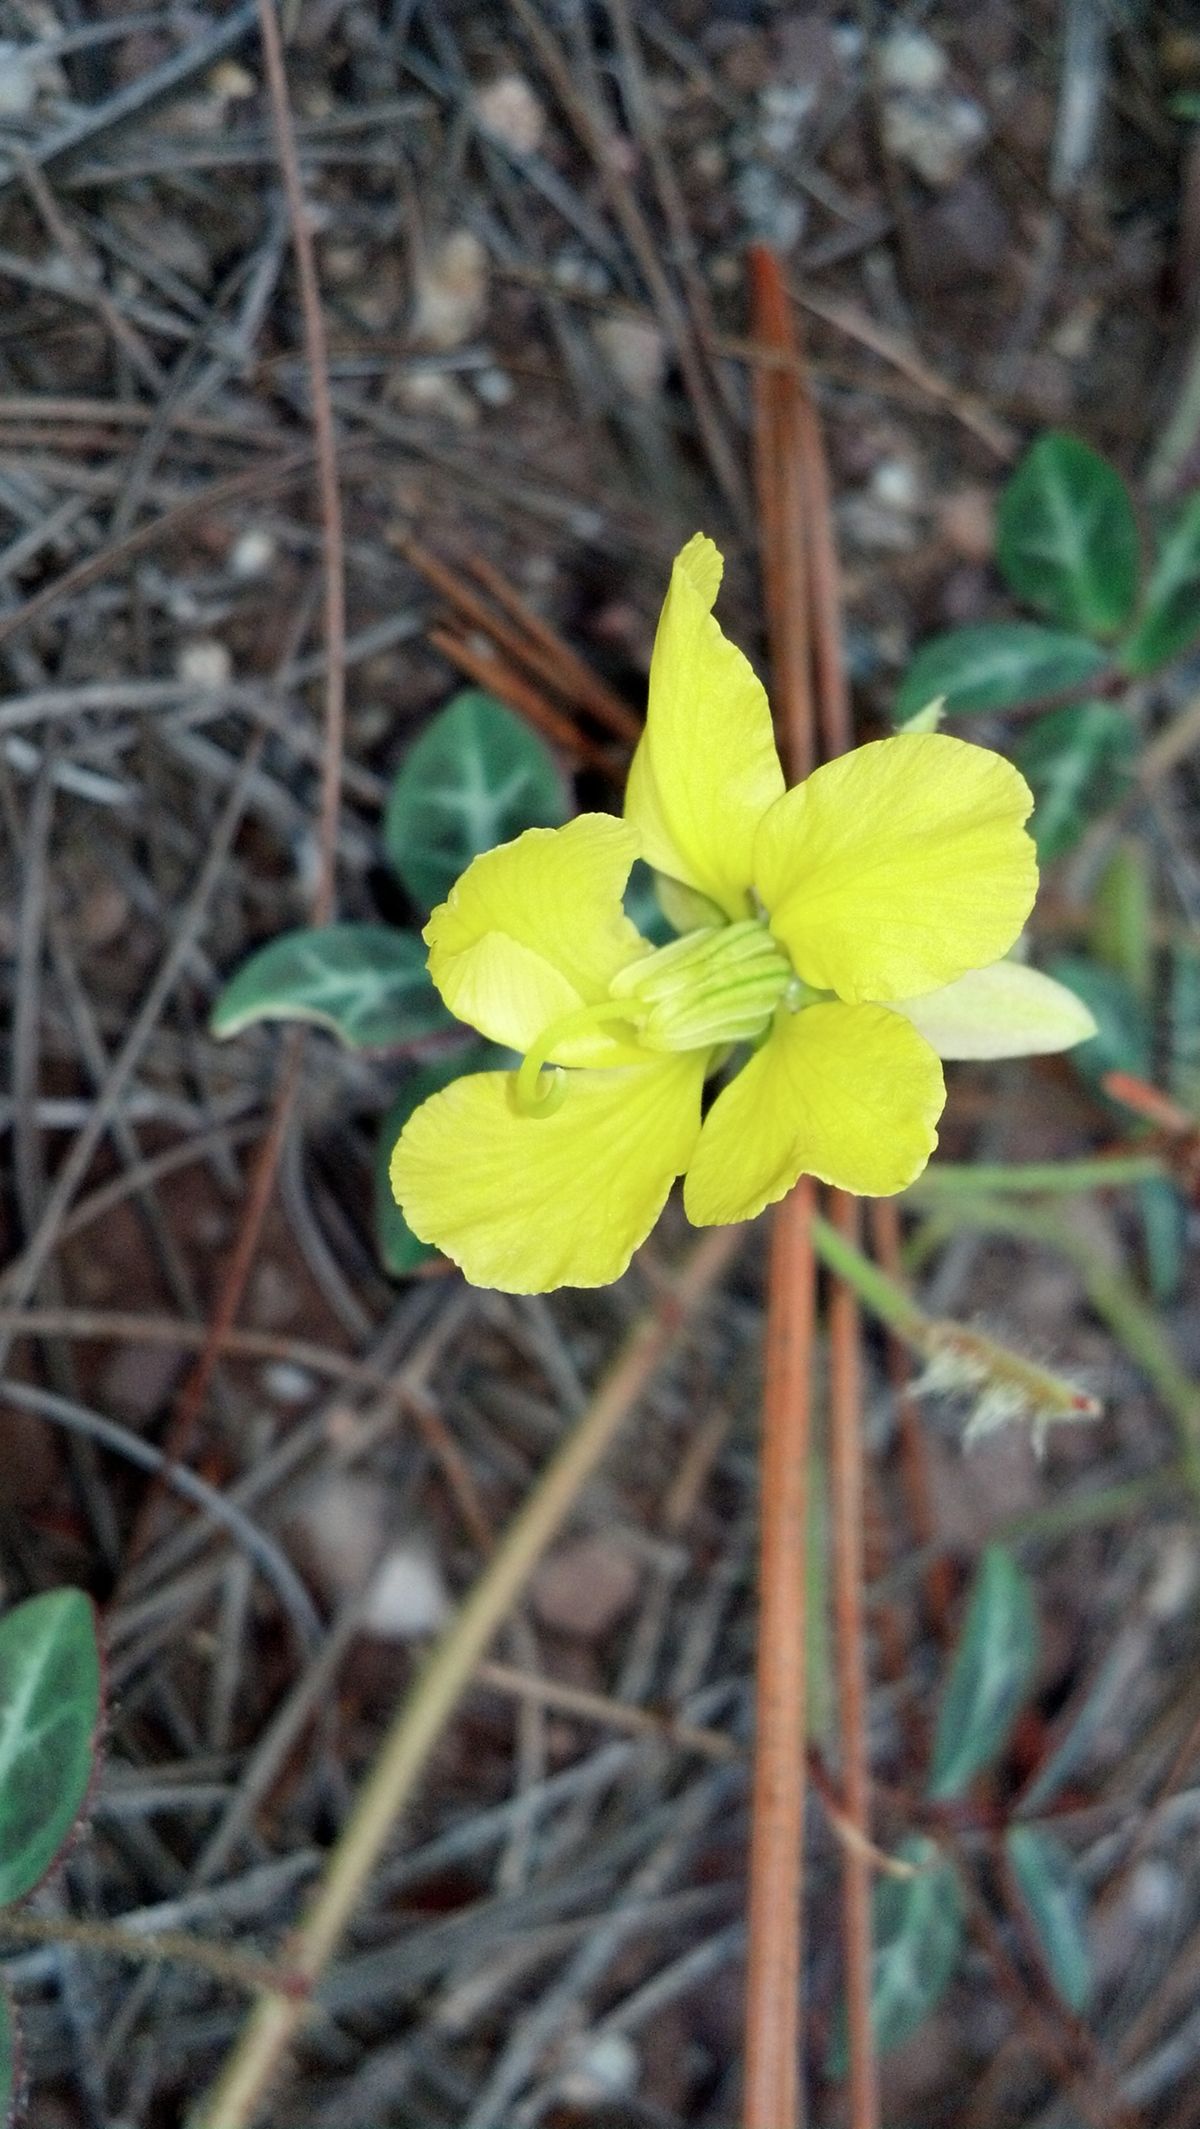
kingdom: Plantae
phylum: Tracheophyta
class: Magnoliopsida
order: Fabales
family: Fabaceae
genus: Chamaecrista
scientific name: Chamaecrista hispidula
